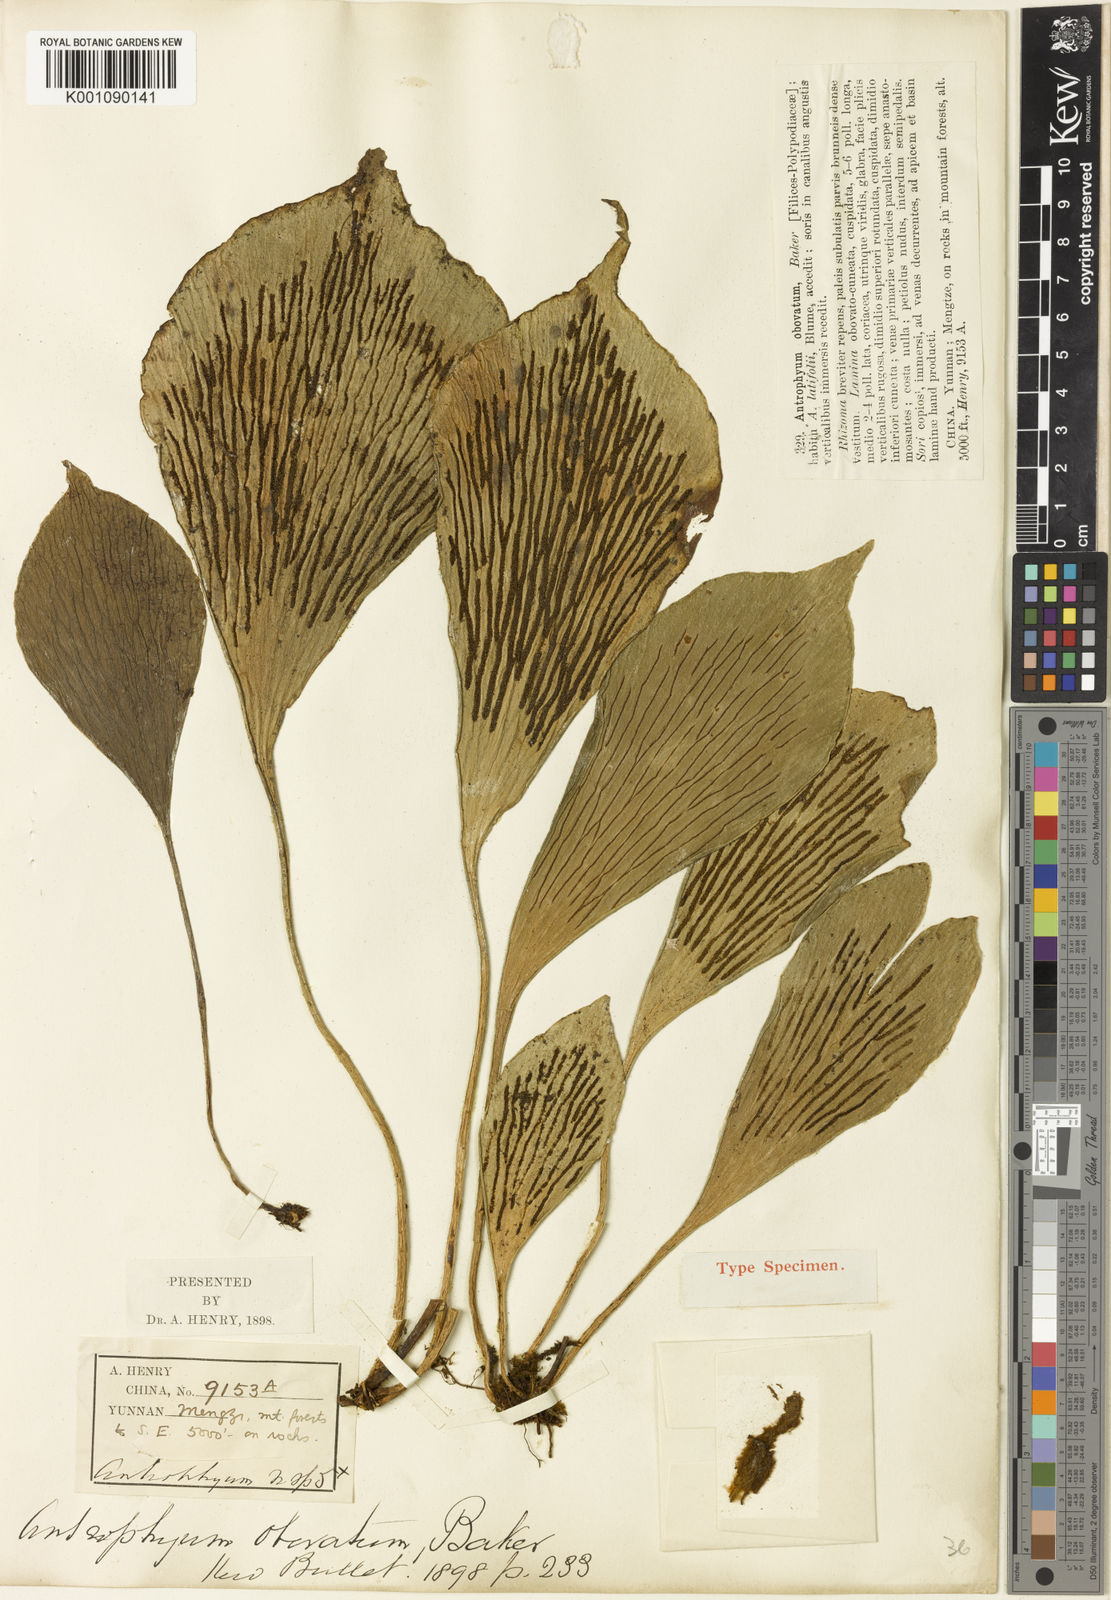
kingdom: Plantae
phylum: Tracheophyta
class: Polypodiopsida
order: Polypodiales
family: Pteridaceae
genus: Antrophyum
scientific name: Antrophyum obovatum
